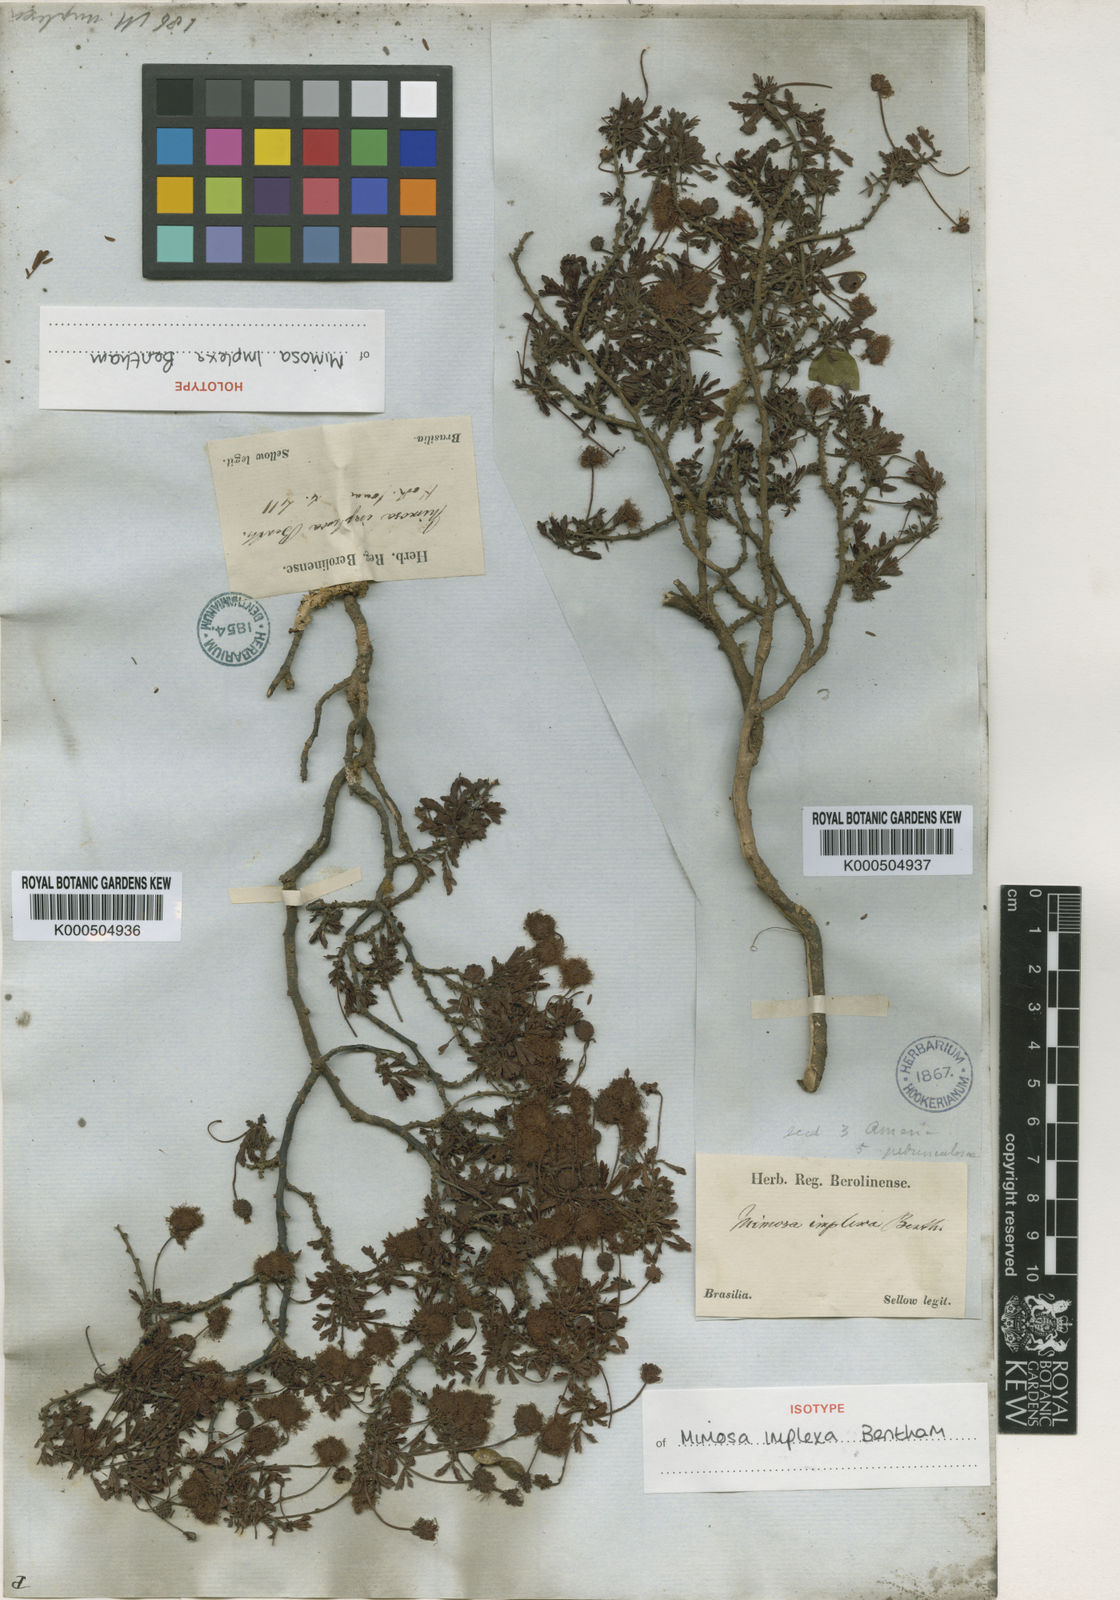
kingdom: Plantae
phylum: Tracheophyta
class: Magnoliopsida
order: Fabales
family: Fabaceae
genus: Mimosa
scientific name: Mimosa implexa
